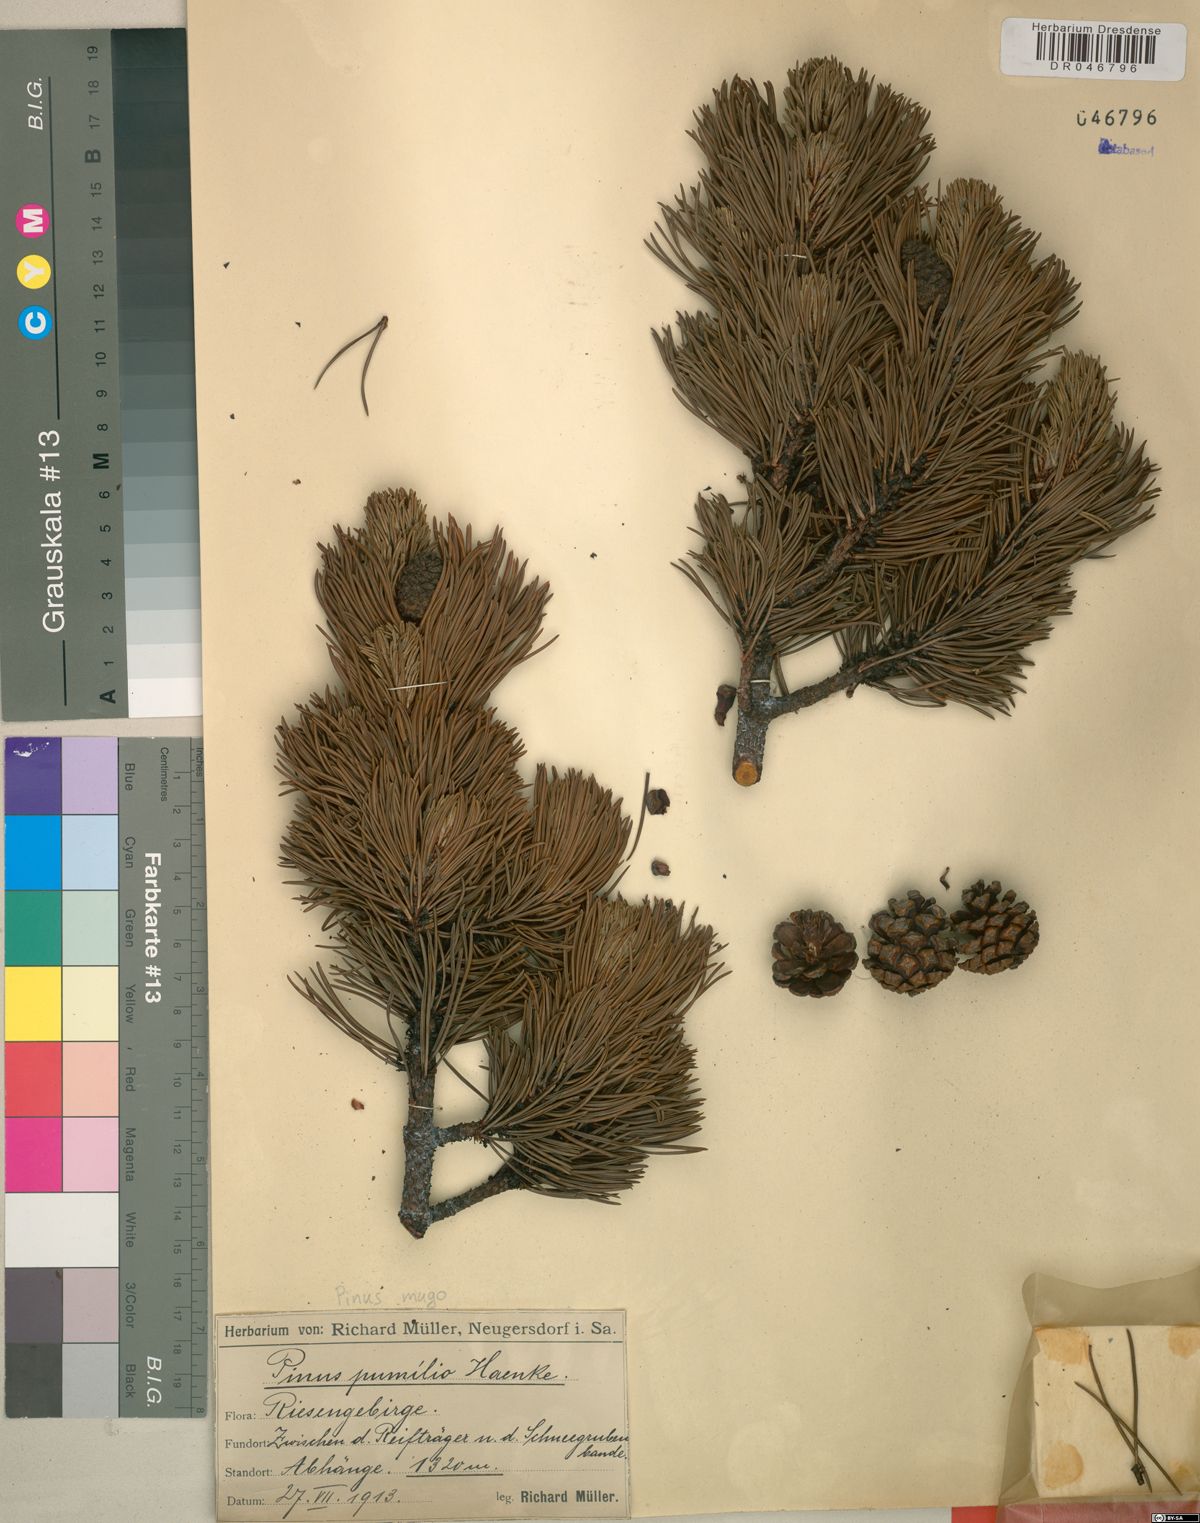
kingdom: Plantae
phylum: Tracheophyta
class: Pinopsida
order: Pinales
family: Pinaceae
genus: Pinus
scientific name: Pinus mugo
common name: Mugo pine
